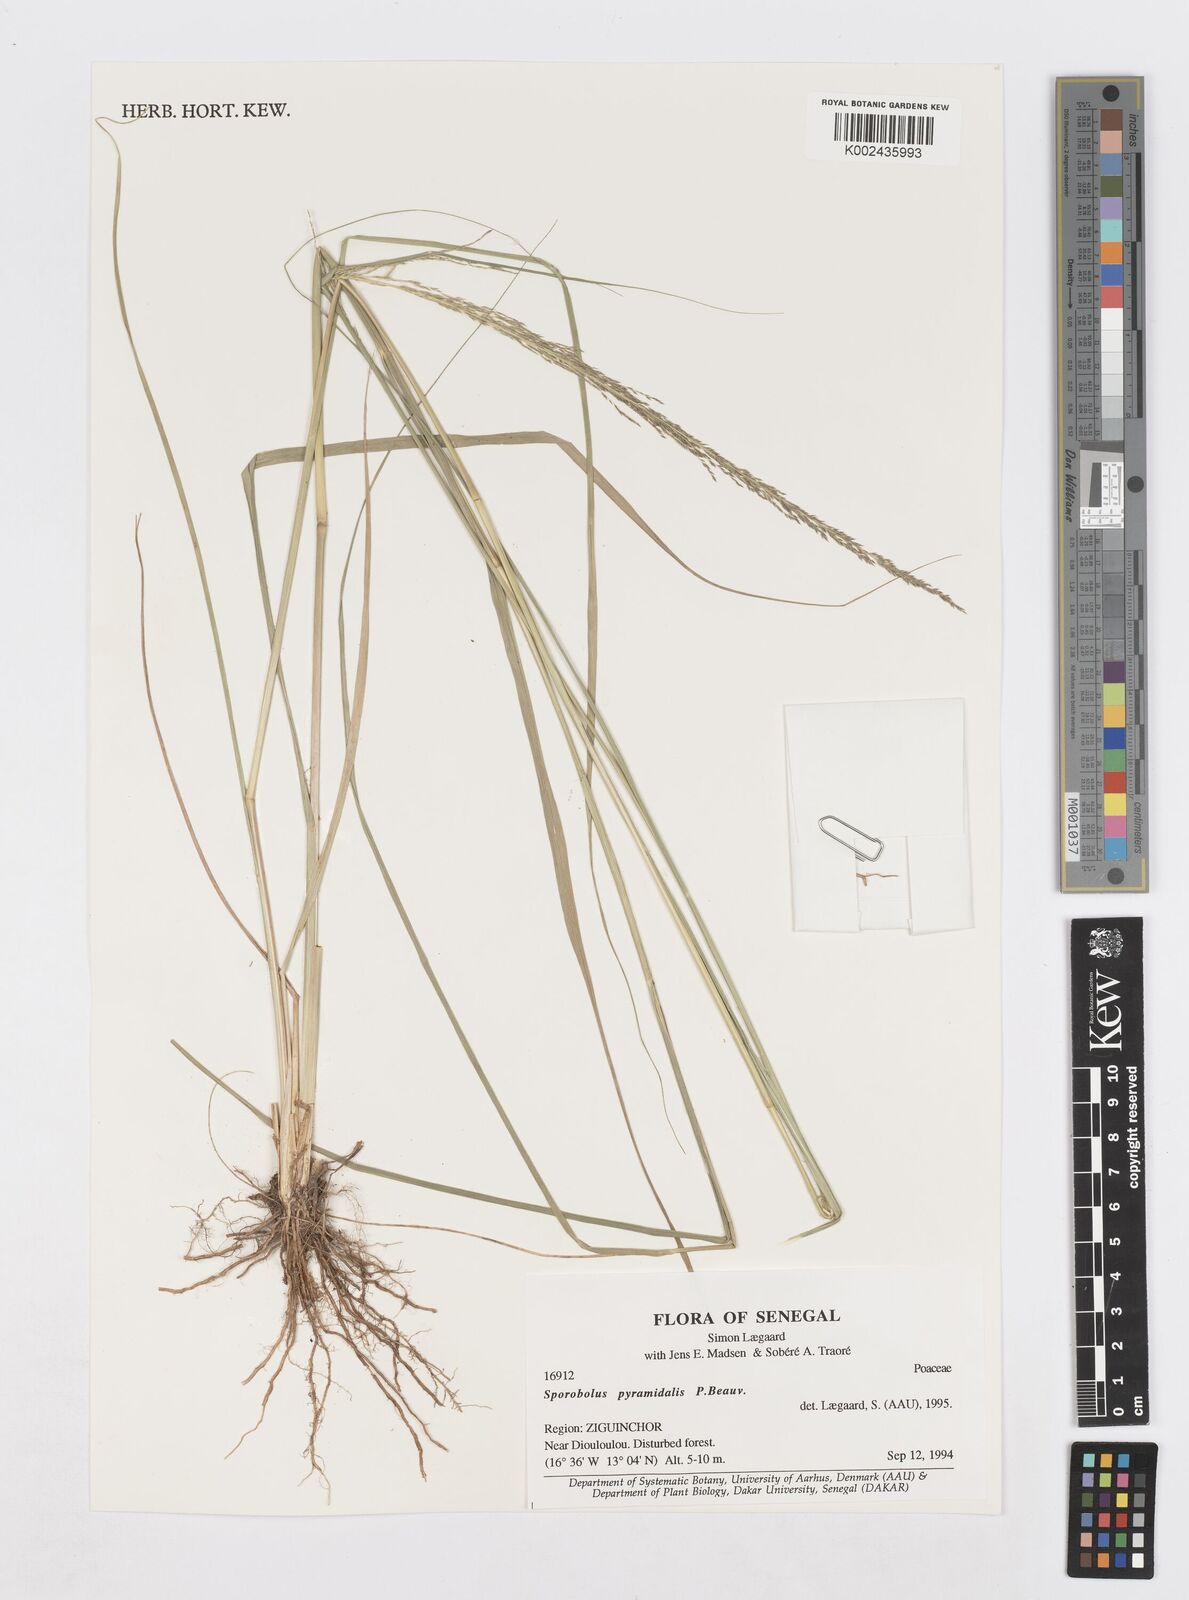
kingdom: Plantae
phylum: Tracheophyta
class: Liliopsida
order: Poales
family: Poaceae
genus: Sporobolus
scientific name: Sporobolus pyramidalis
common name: West indian dropseed
